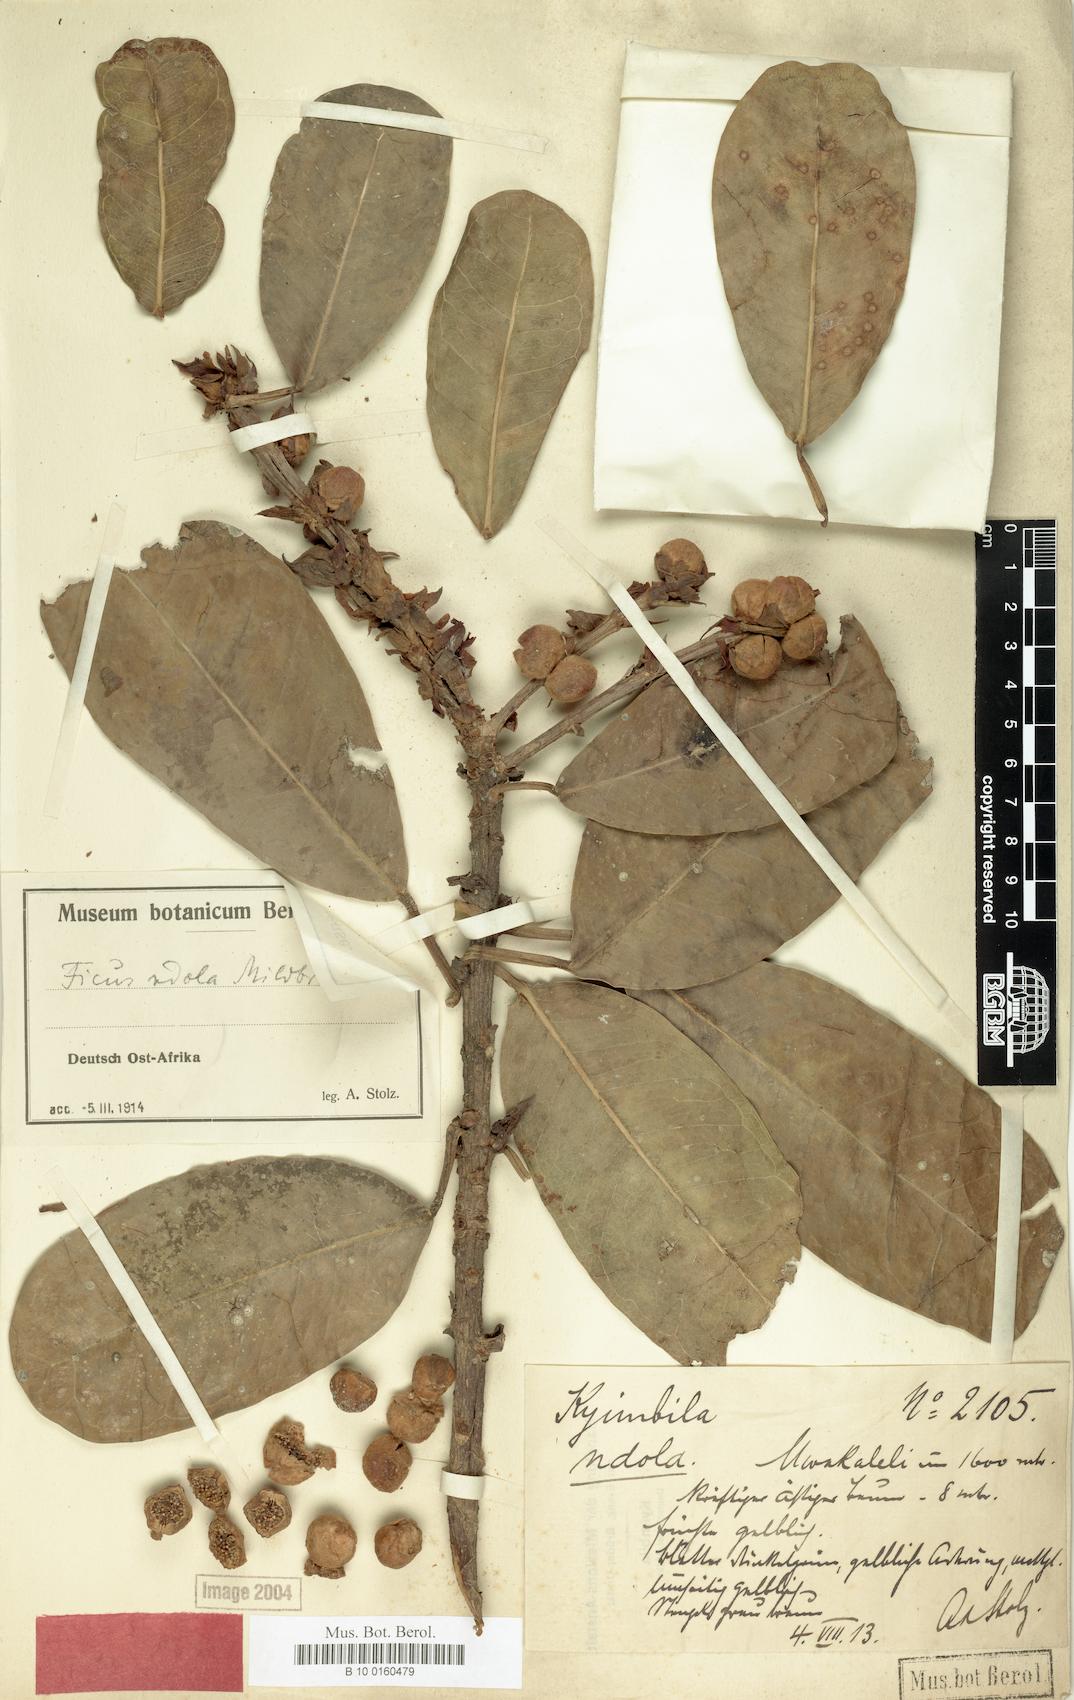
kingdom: Plantae
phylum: Tracheophyta
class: Magnoliopsida
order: Rosales
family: Moraceae
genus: Ficus
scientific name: Ficus amadiensis
